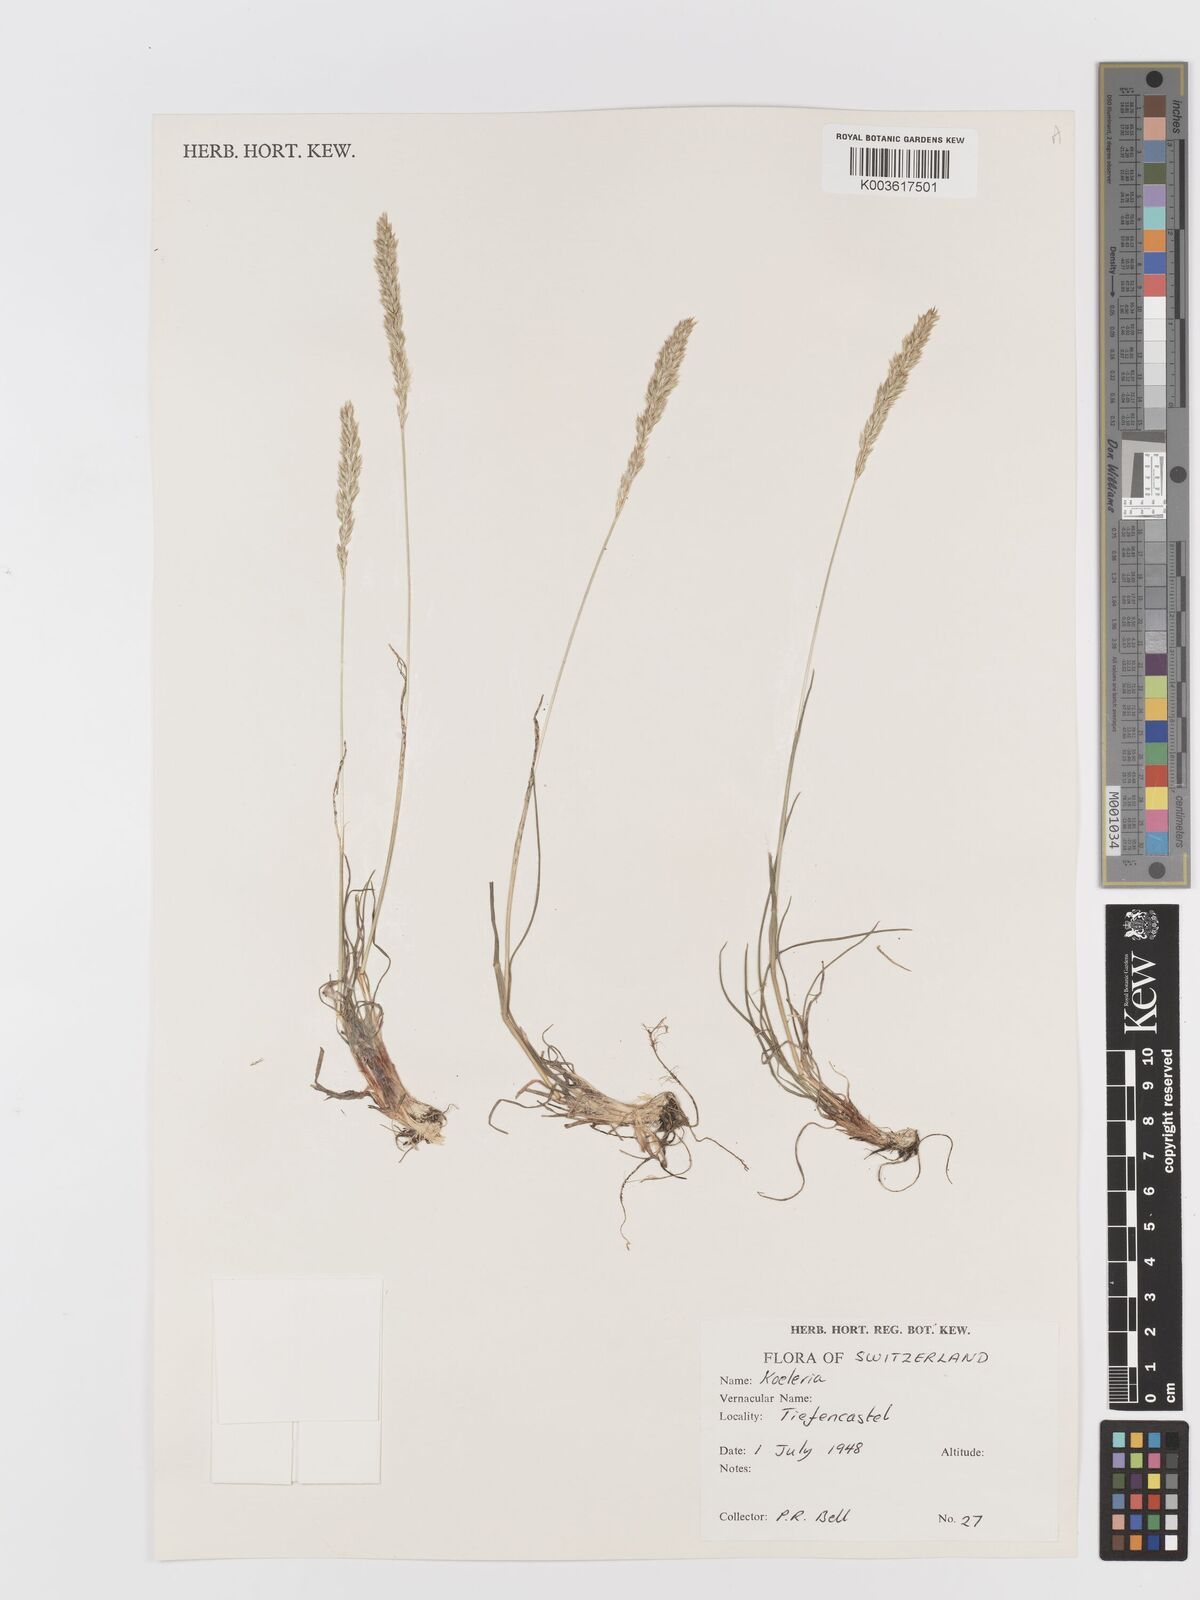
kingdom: Plantae
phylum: Tracheophyta
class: Liliopsida
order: Poales
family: Poaceae
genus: Koeleria
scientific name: Koeleria
